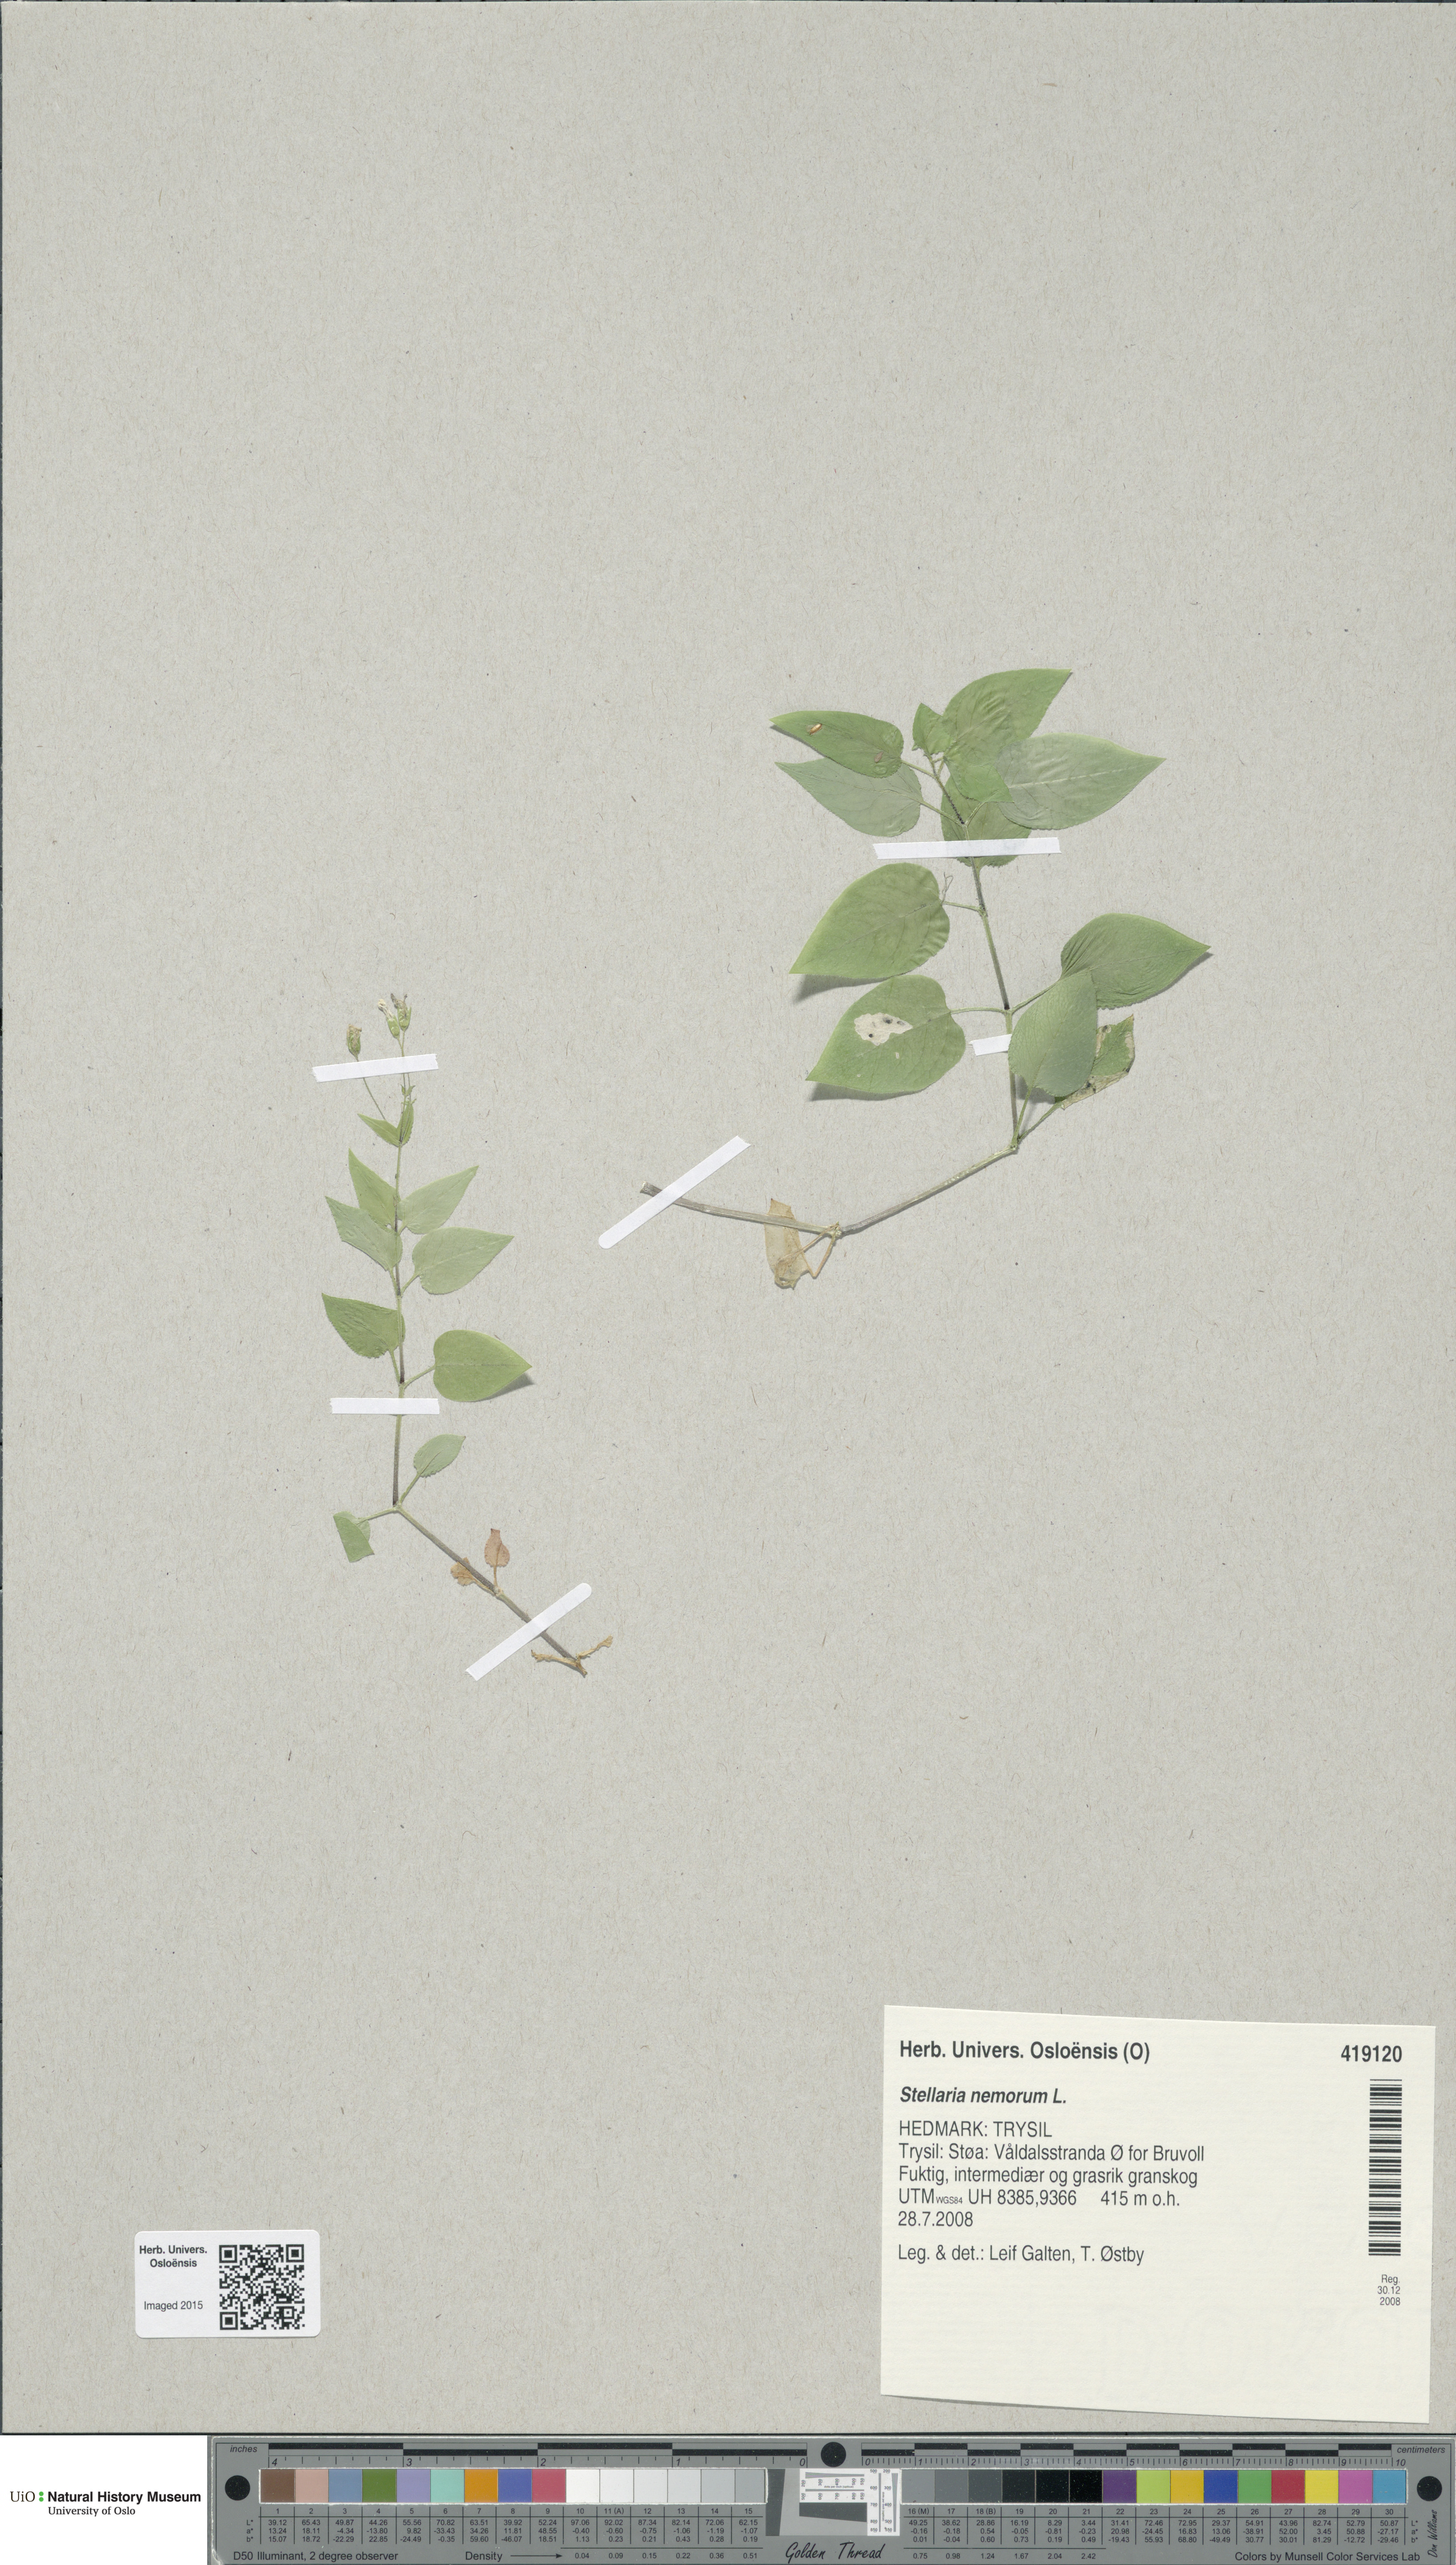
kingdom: Plantae
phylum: Tracheophyta
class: Magnoliopsida
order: Caryophyllales
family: Caryophyllaceae
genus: Stellaria
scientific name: Stellaria nemorum
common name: Wood stitchwort
